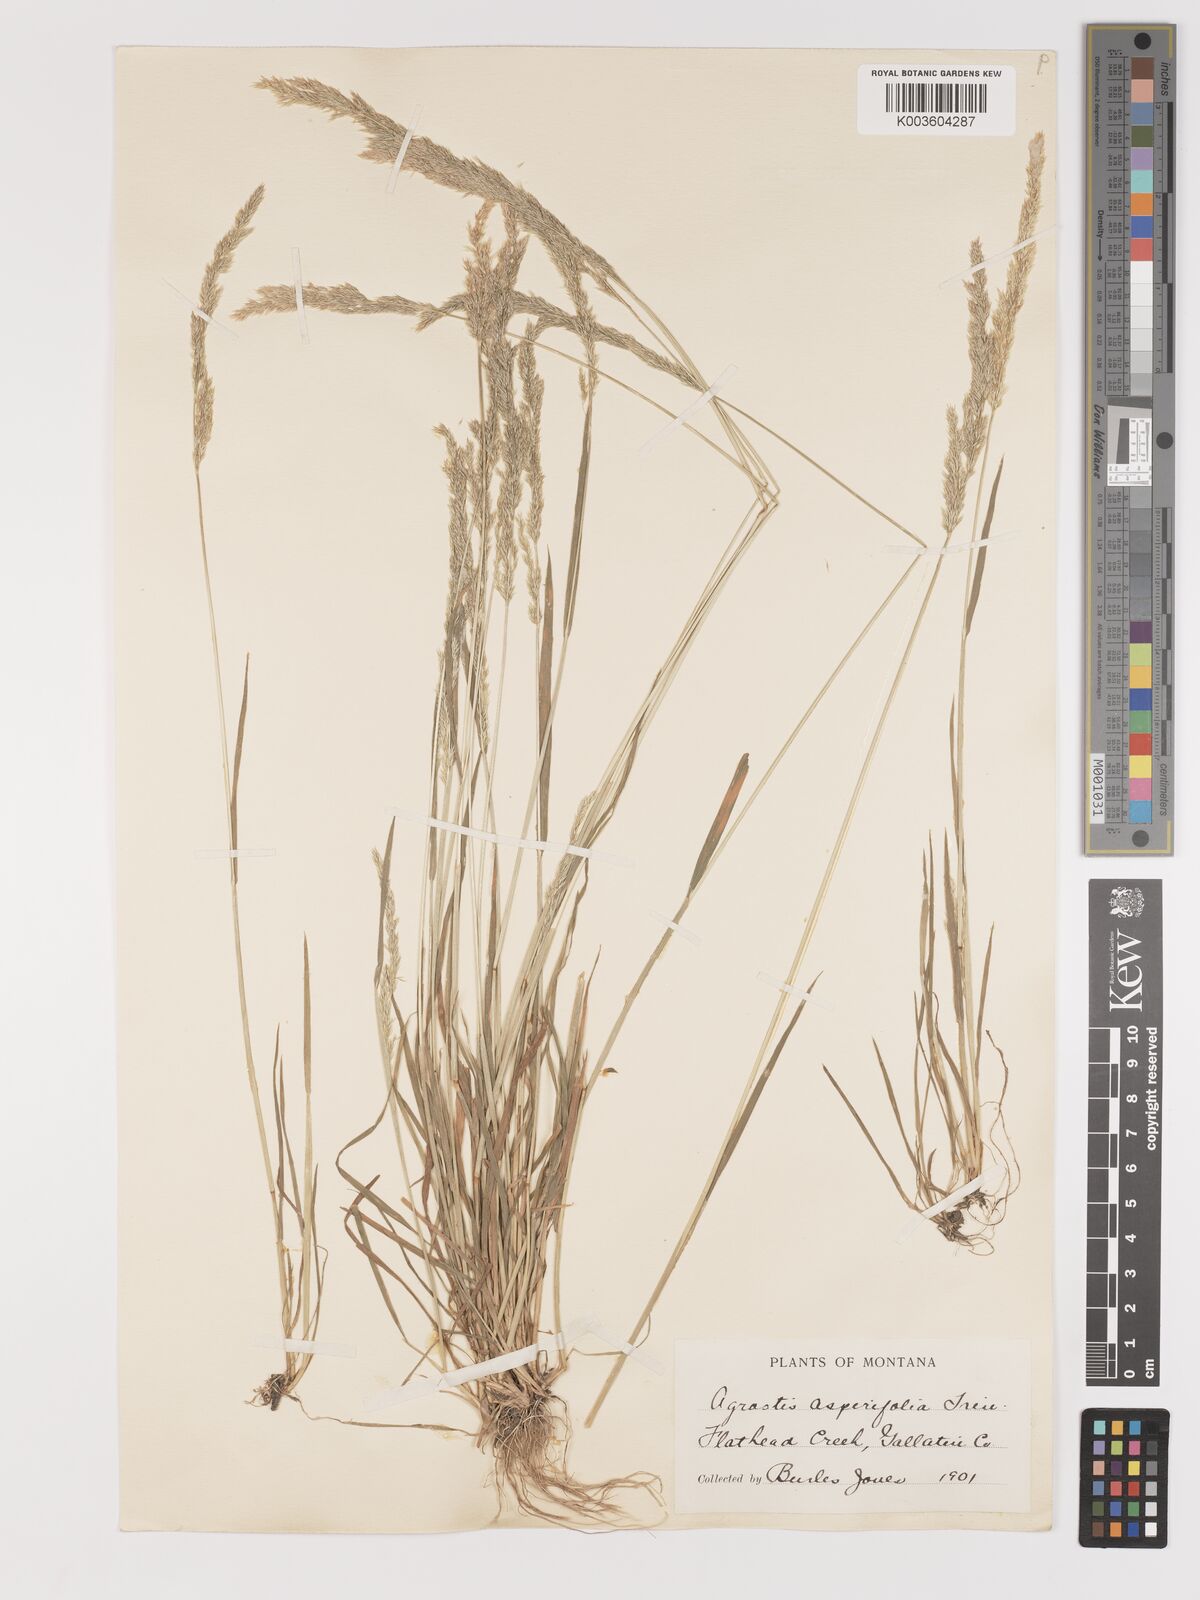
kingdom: Plantae
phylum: Tracheophyta
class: Liliopsida
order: Poales
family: Poaceae
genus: Agrostis
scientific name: Agrostis exarata
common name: Spike bent
